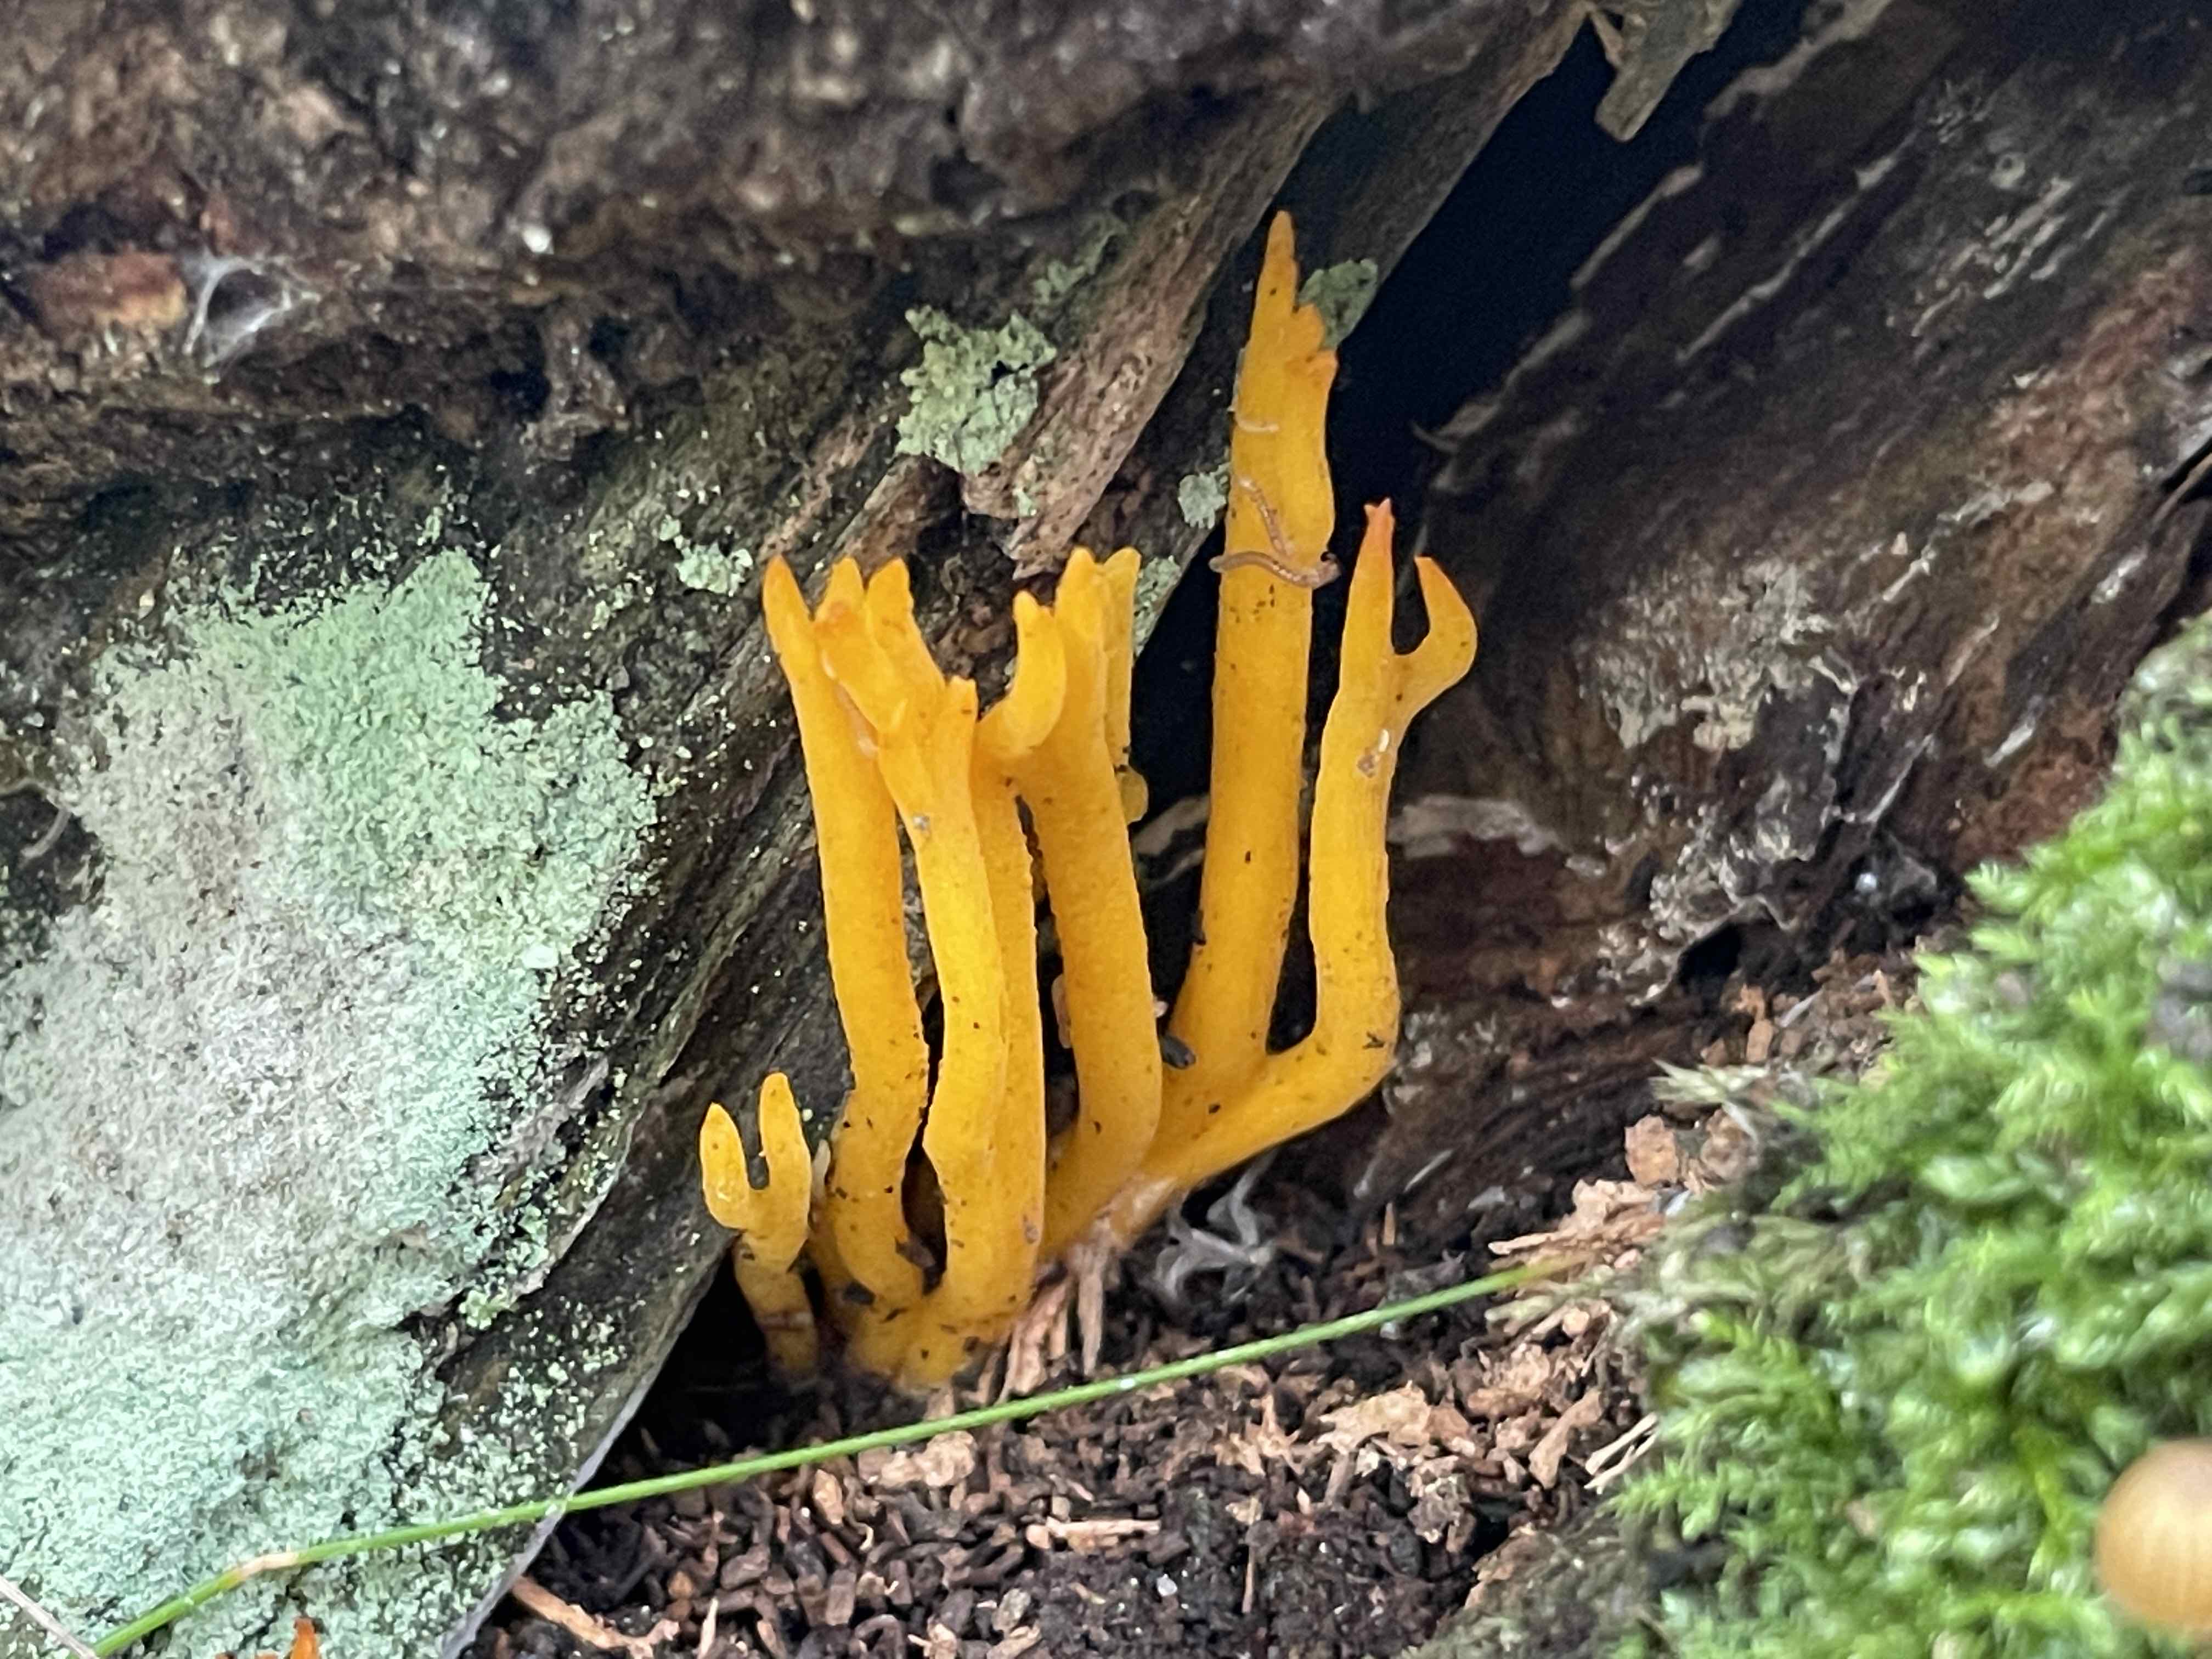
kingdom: Fungi
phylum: Basidiomycota
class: Dacrymycetes
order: Dacrymycetales
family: Dacrymycetaceae
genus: Calocera
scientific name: Calocera viscosa
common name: almindelig guldgaffel
